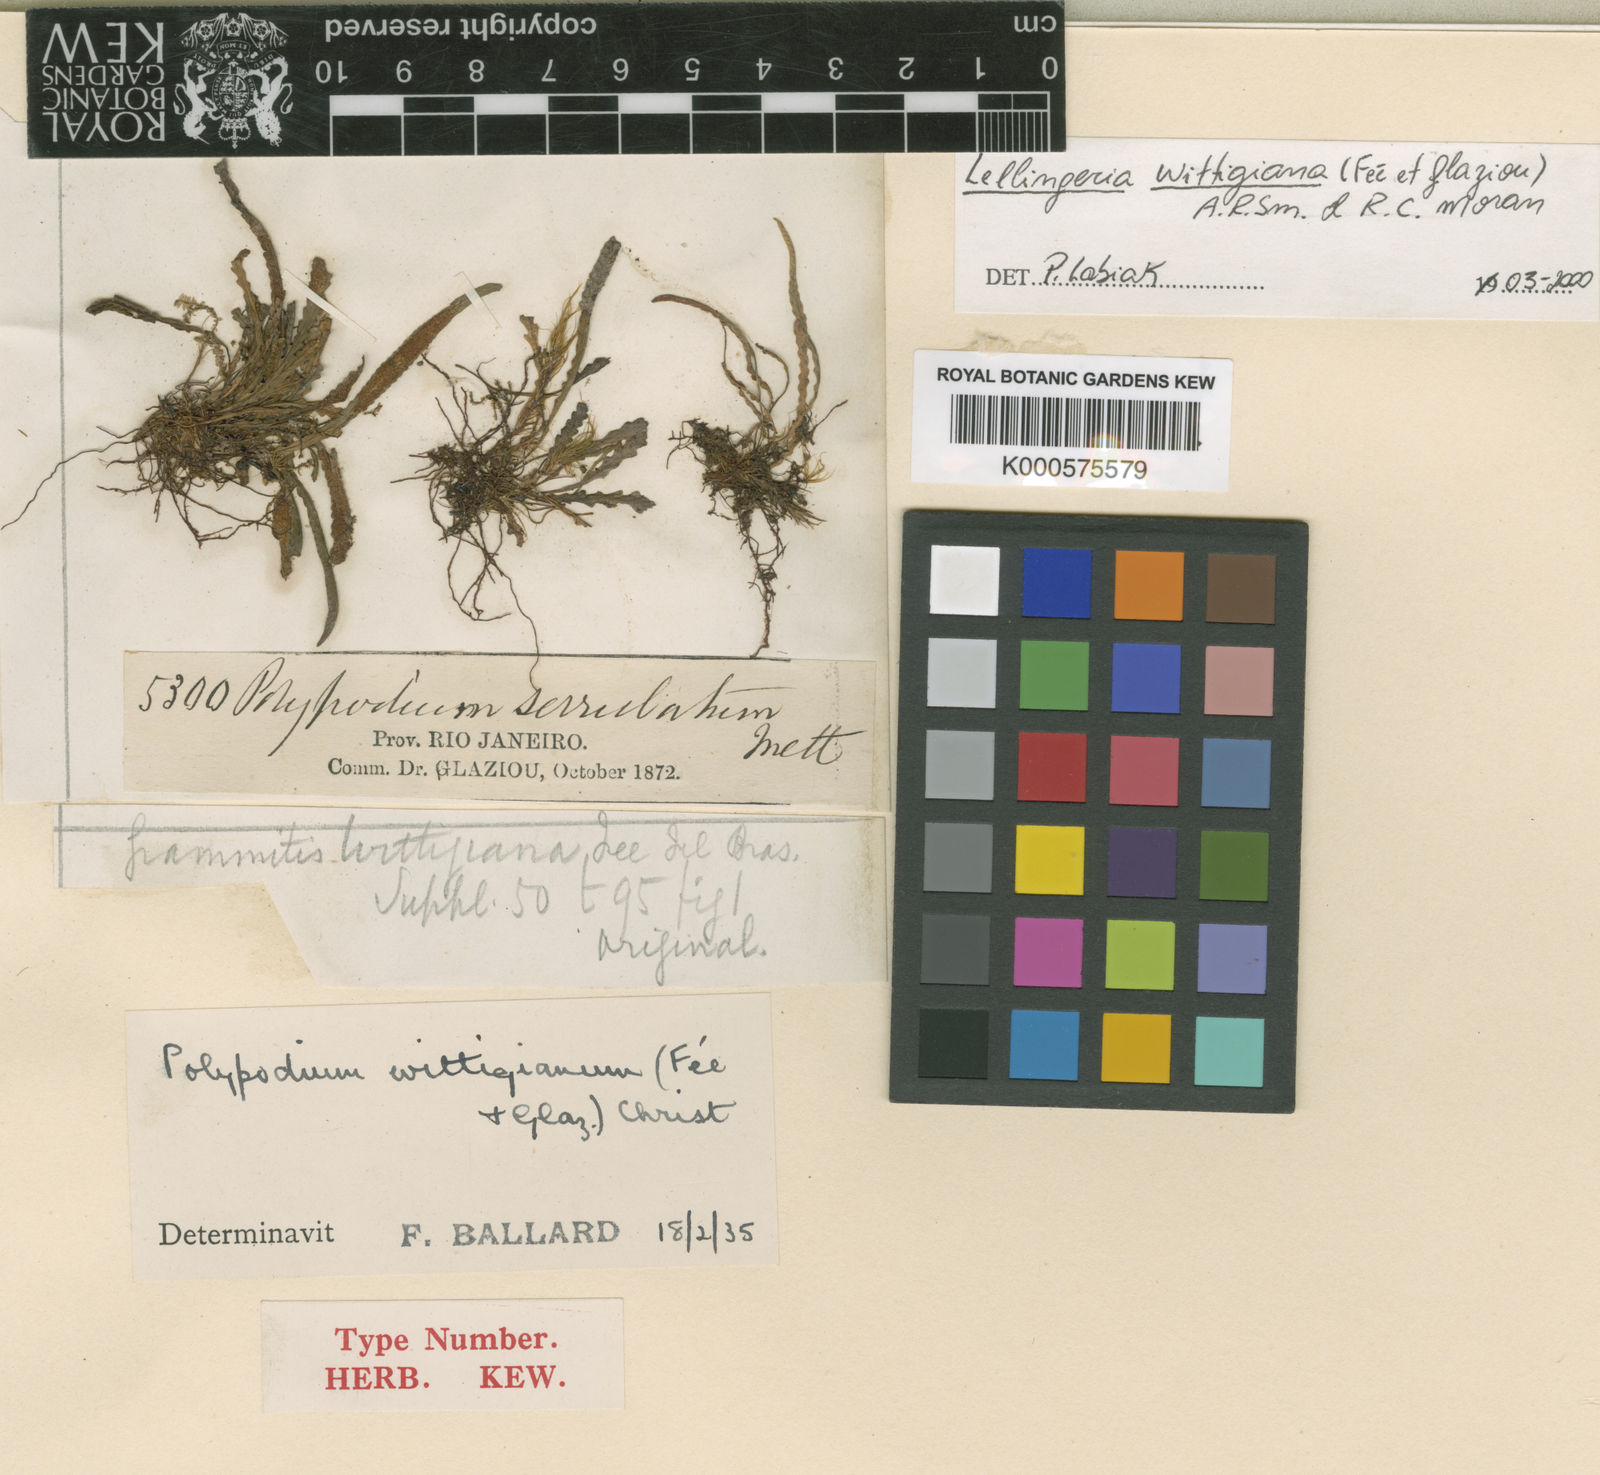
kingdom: Plantae
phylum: Tracheophyta
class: Polypodiopsida
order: Polypodiales
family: Polypodiaceae
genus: Lellingeria
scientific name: Lellingeria
